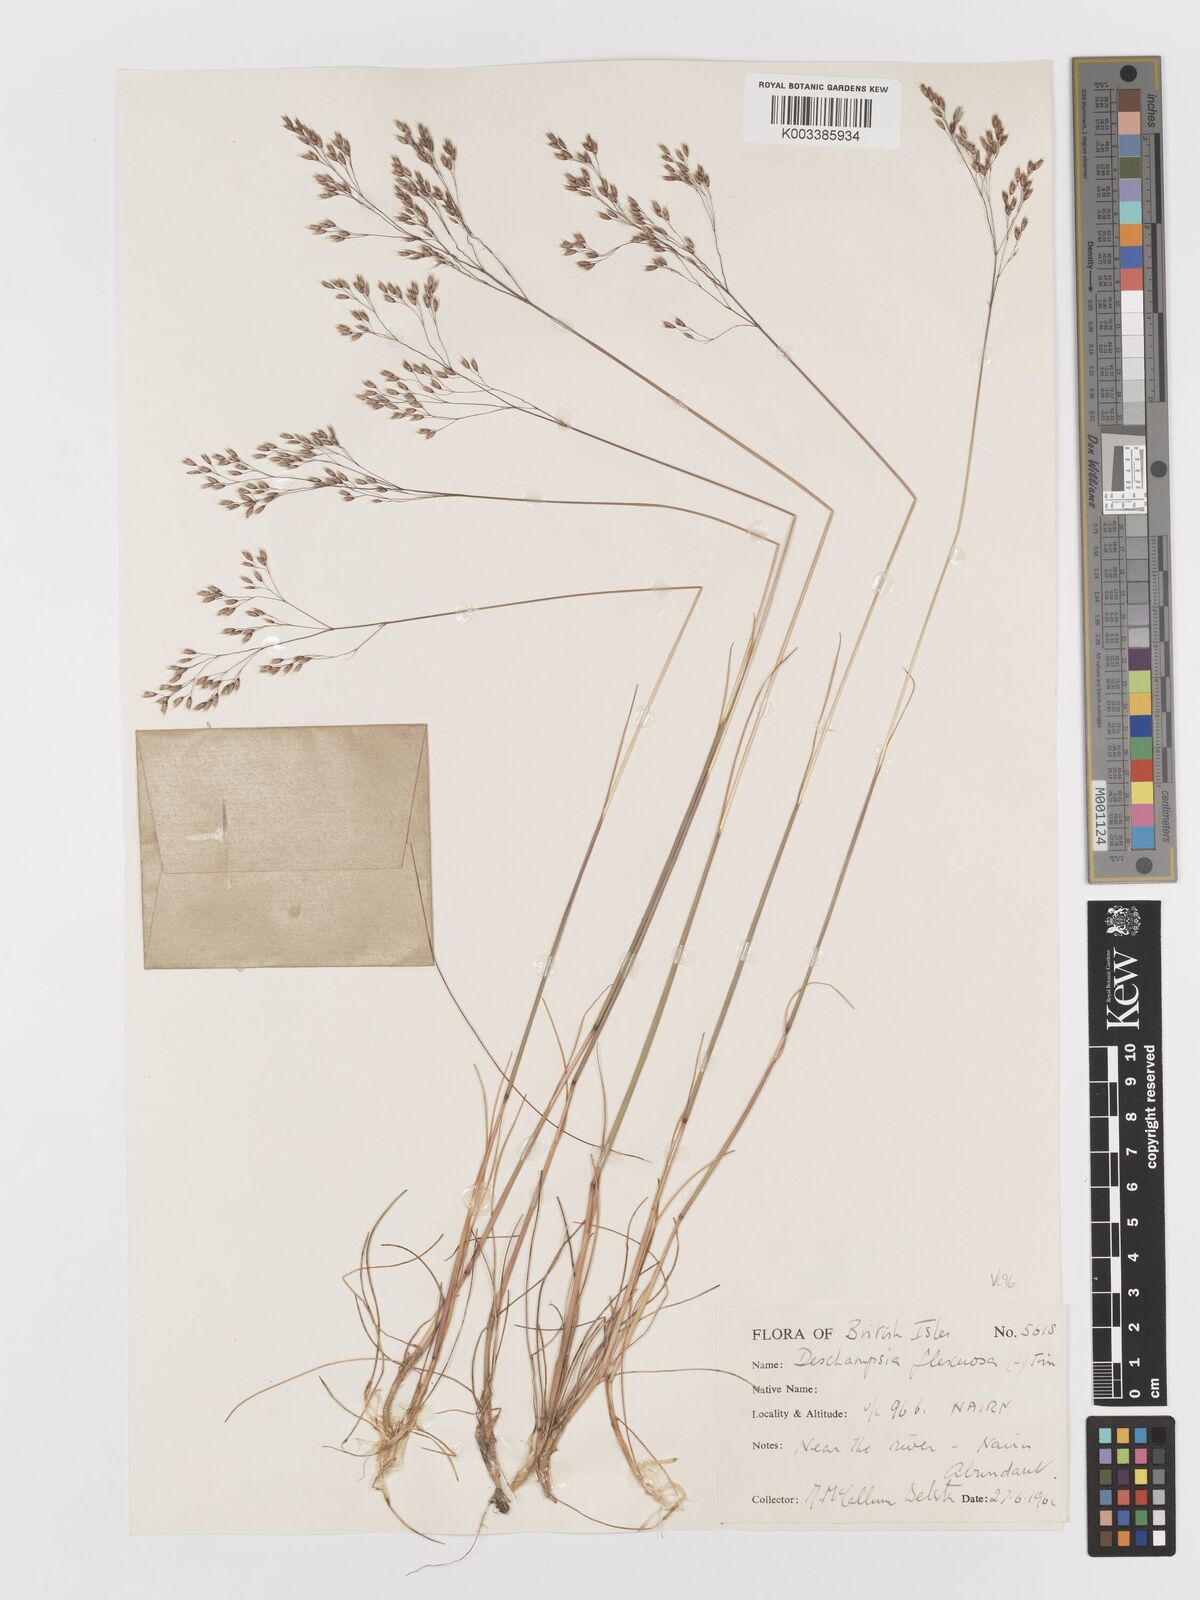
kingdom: Plantae
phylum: Tracheophyta
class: Liliopsida
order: Poales
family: Poaceae
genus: Avenella
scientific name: Avenella flexuosa
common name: Wavy hairgrass
